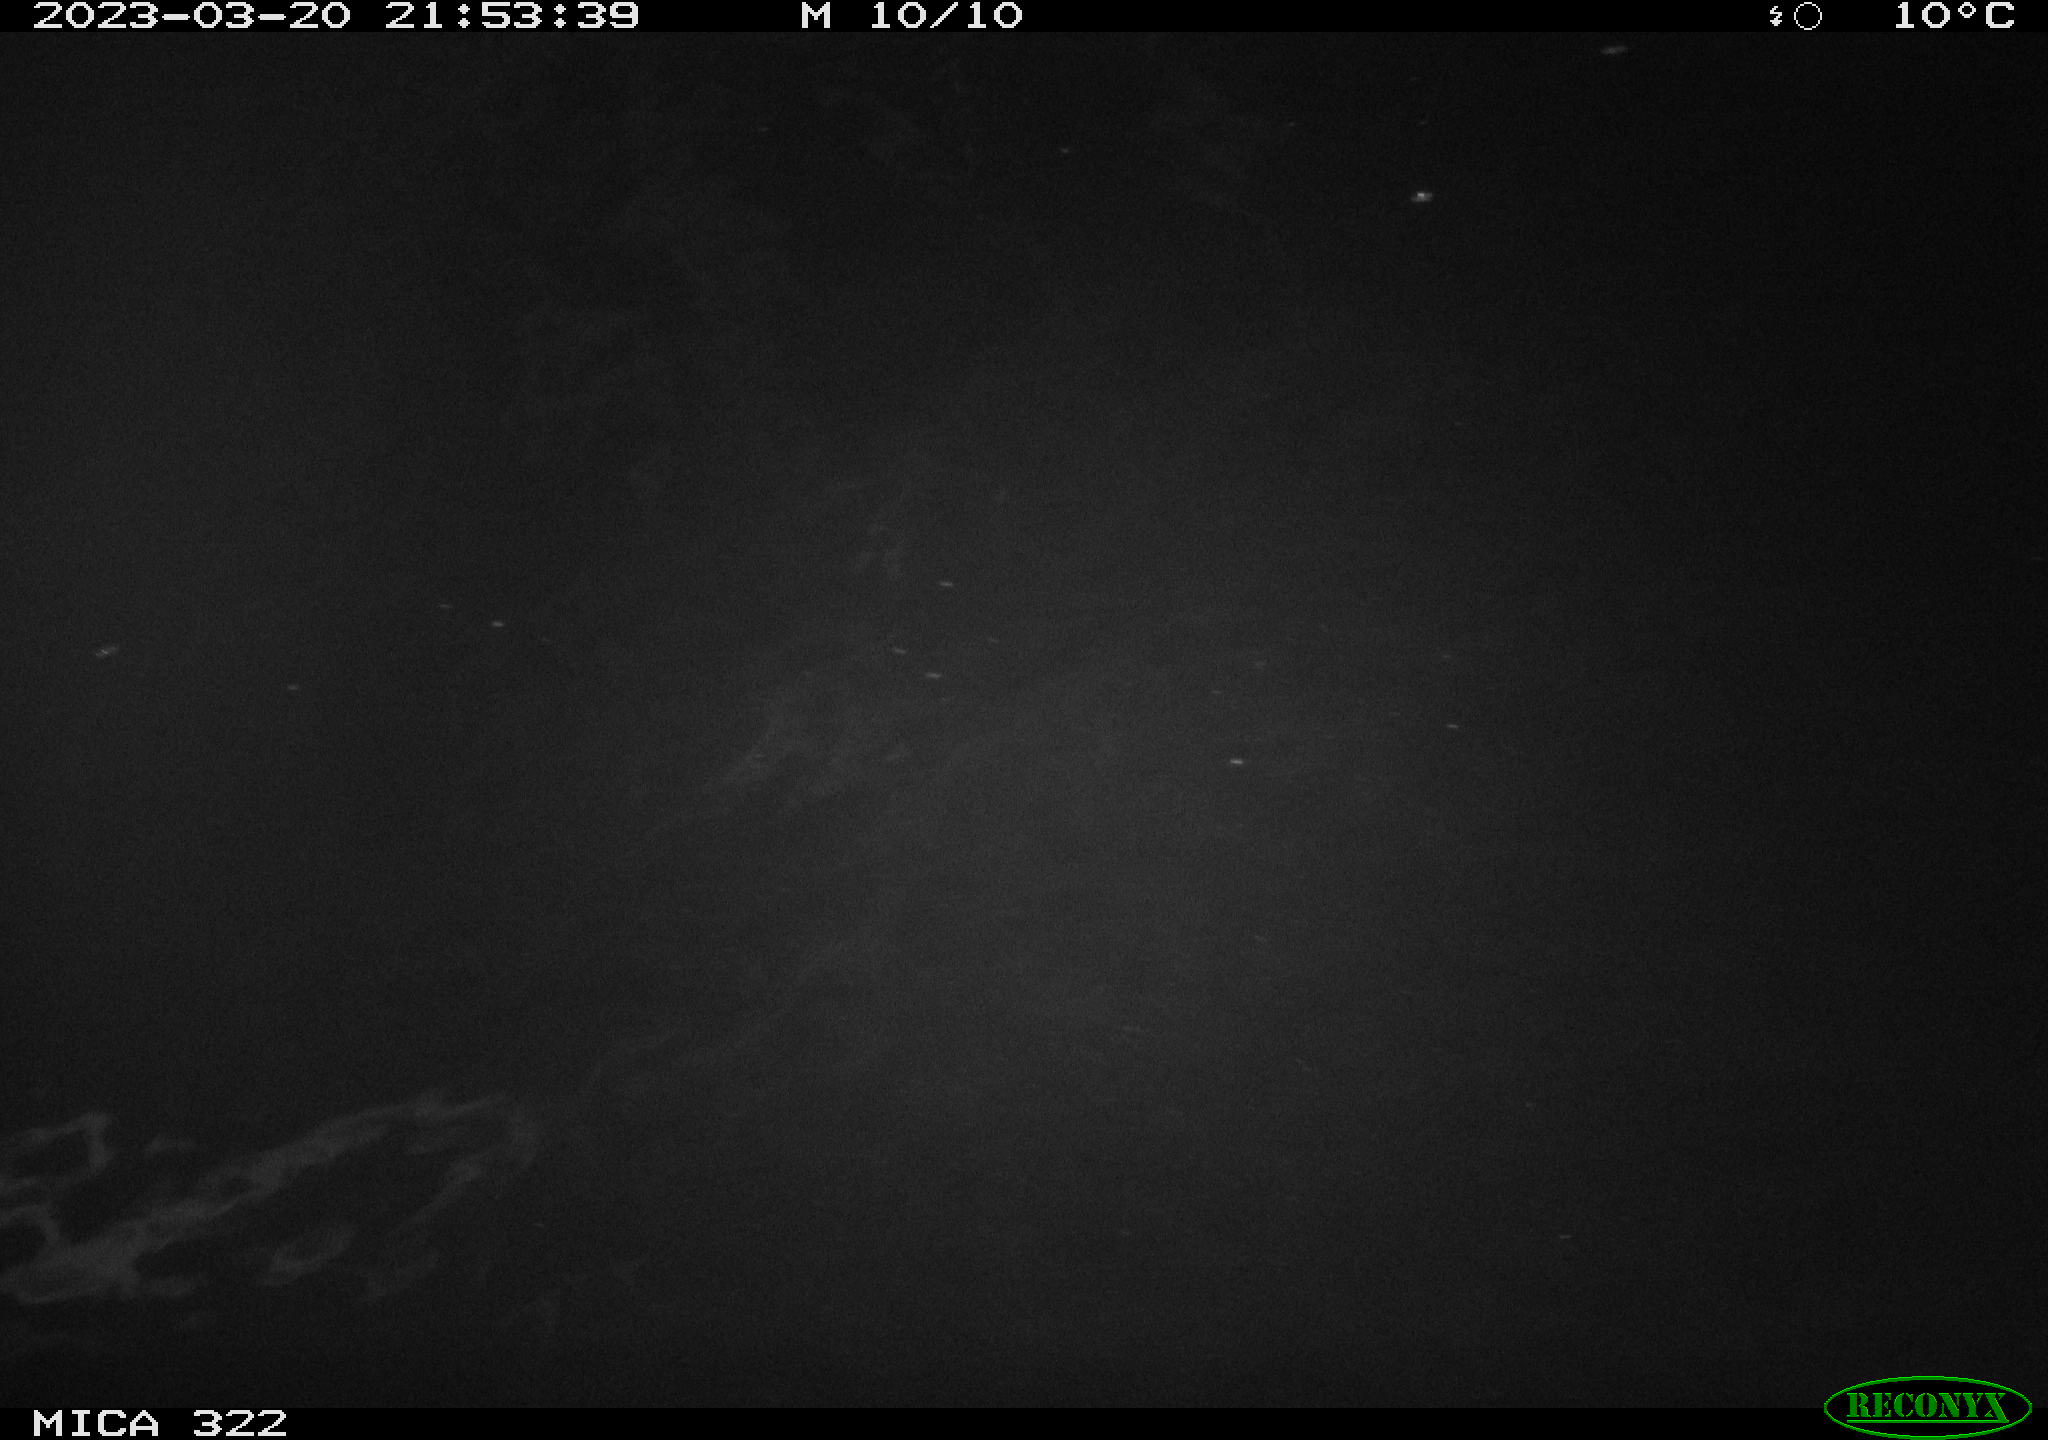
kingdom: Animalia
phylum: Chordata
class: Aves
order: Anseriformes
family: Anatidae
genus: Anas
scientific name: Anas
